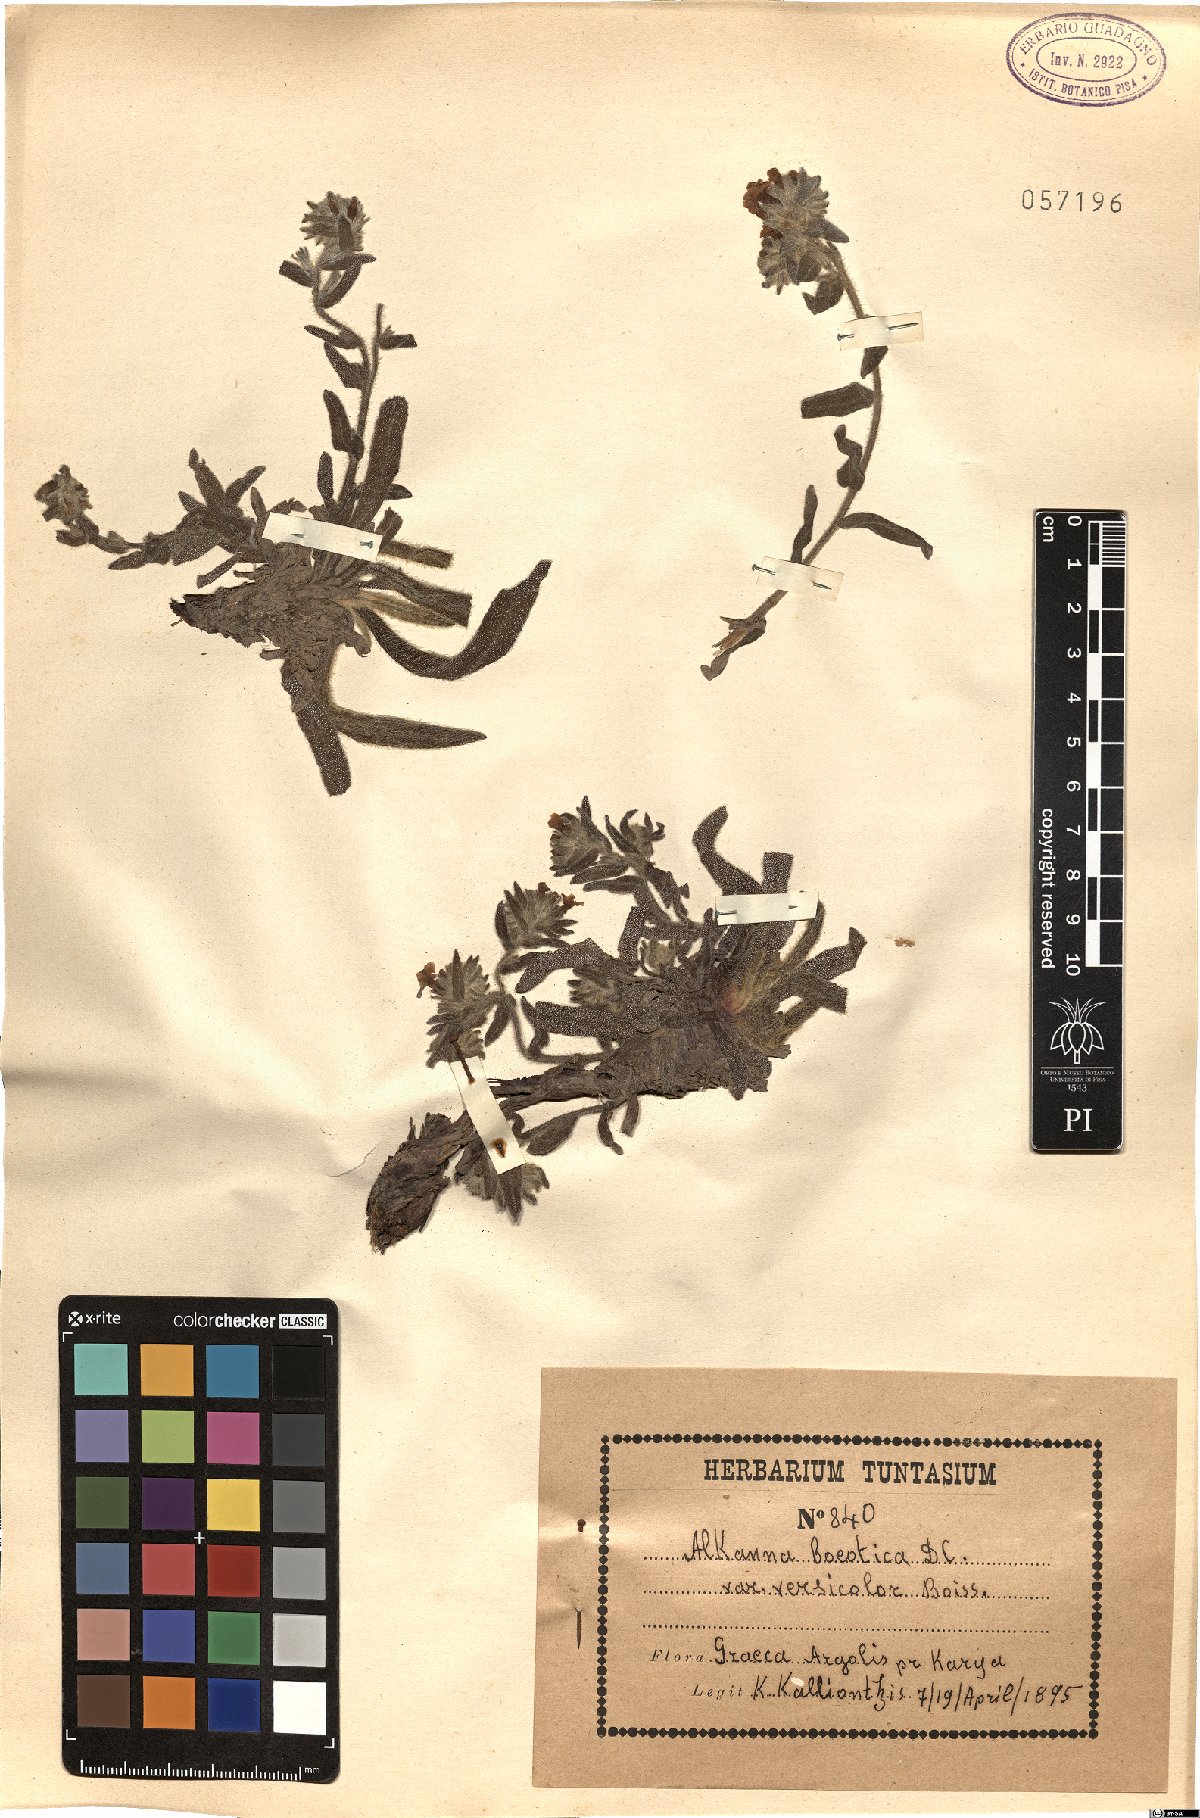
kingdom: Plantae
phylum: Tracheophyta
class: Magnoliopsida
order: Boraginales
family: Boraginaceae
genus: Alkanna
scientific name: Alkanna graeca
